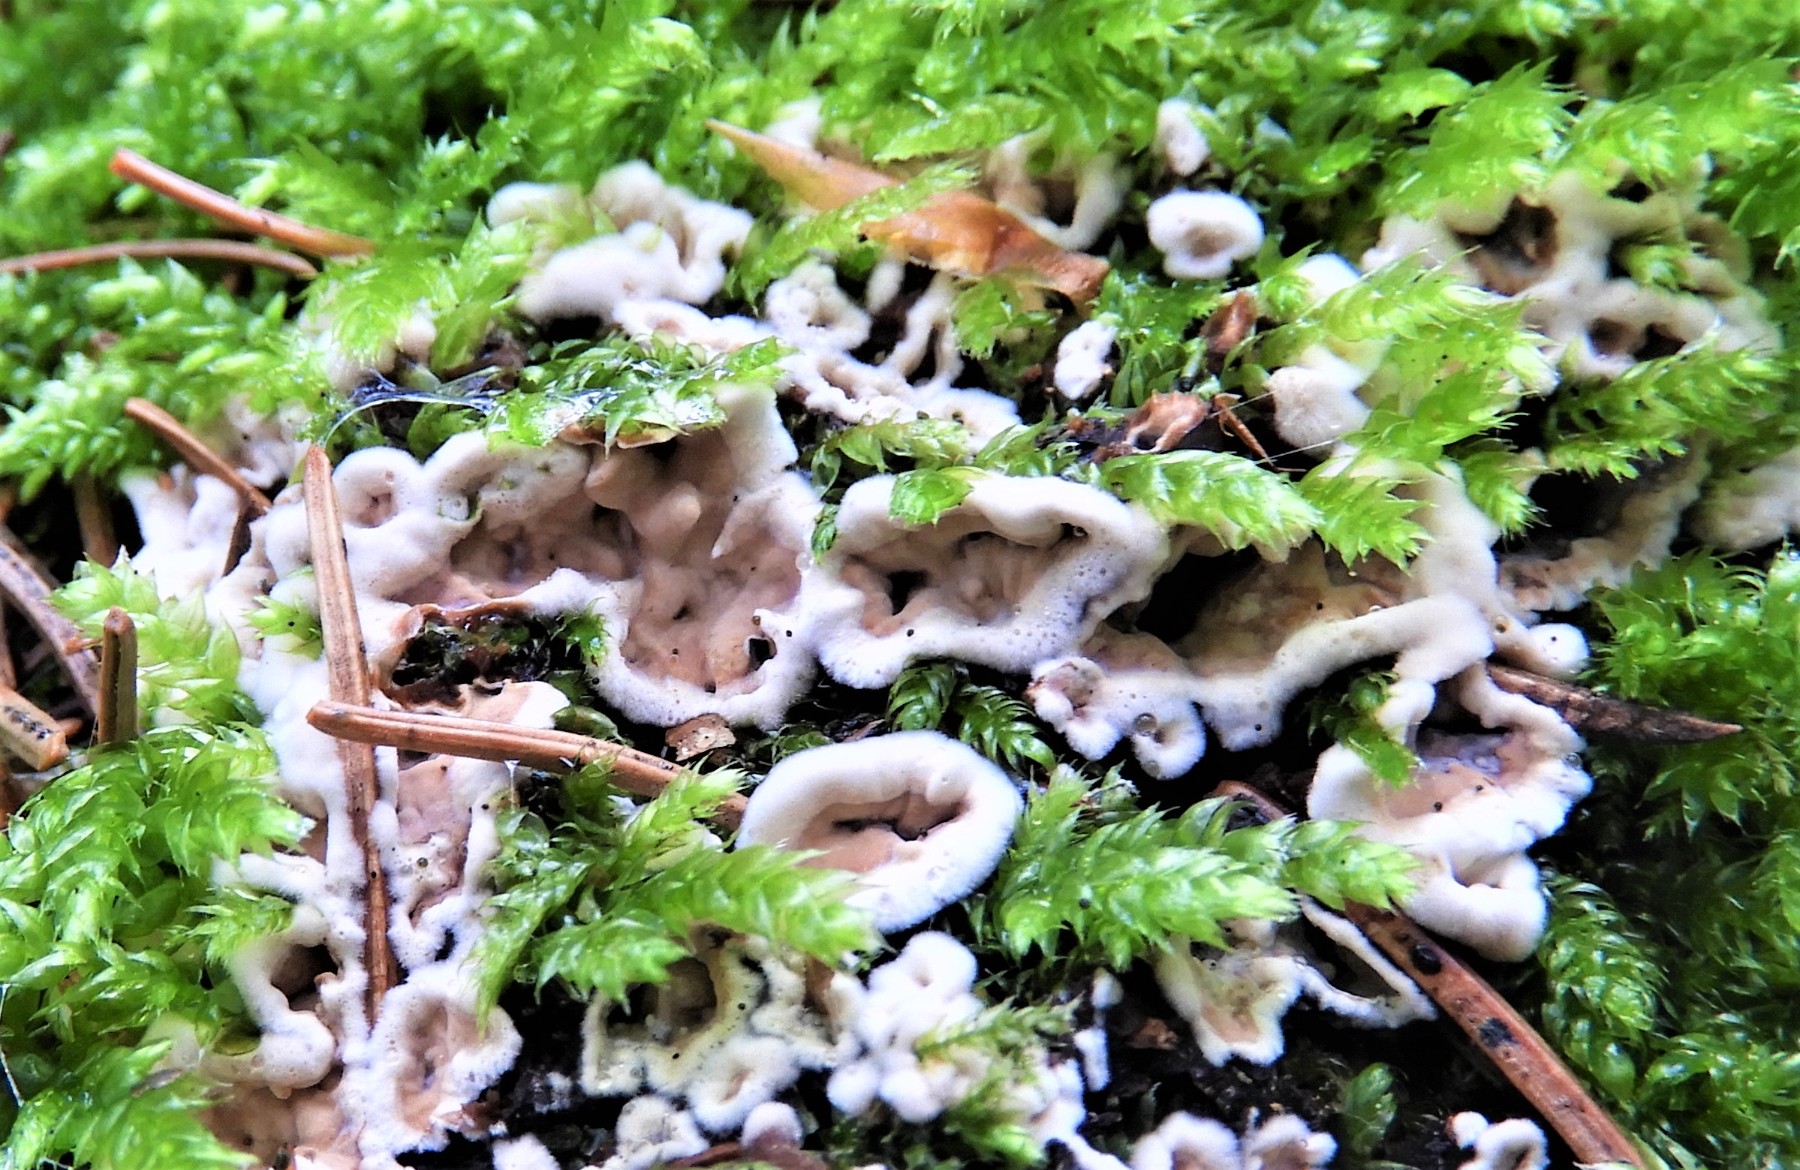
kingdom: Fungi
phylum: Basidiomycota
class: Agaricomycetes
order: Corticiales
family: Corticiaceae
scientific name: Corticiaceae
